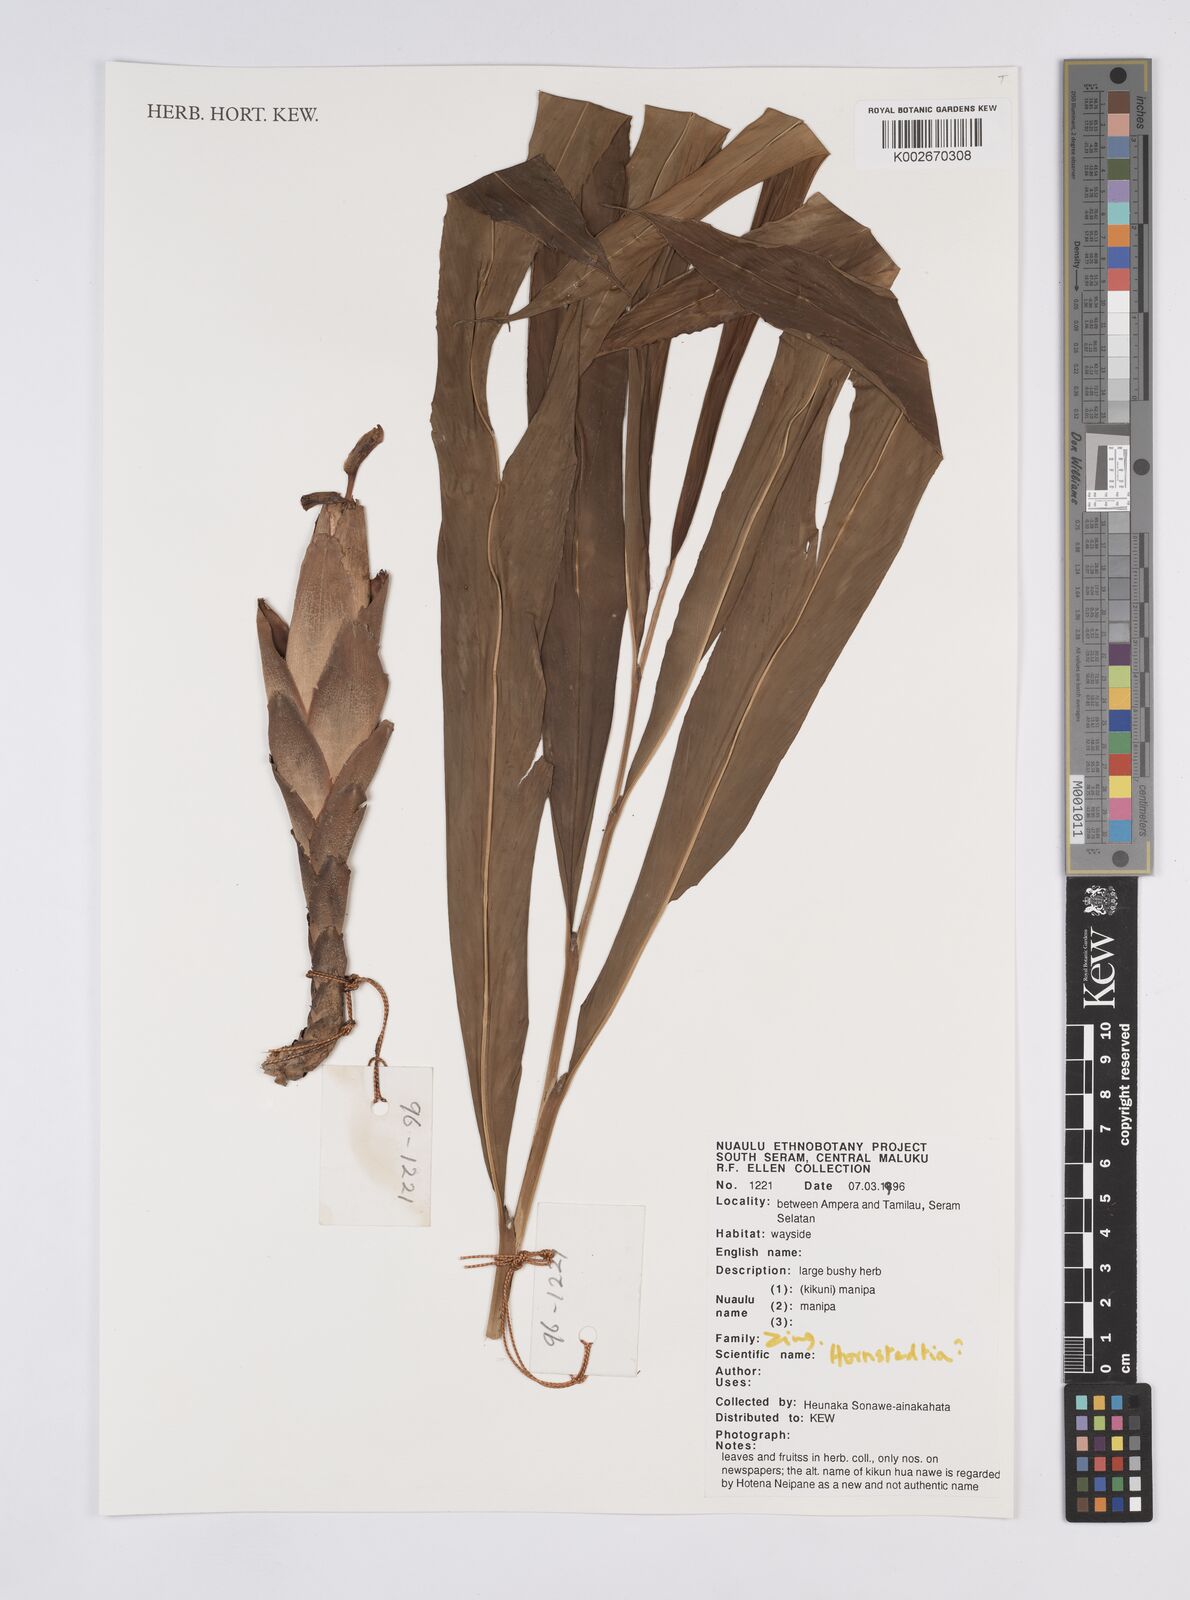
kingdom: Plantae
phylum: Tracheophyta
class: Liliopsida
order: Zingiberales
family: Zingiberaceae
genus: Hornstedtia
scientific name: Hornstedtia
